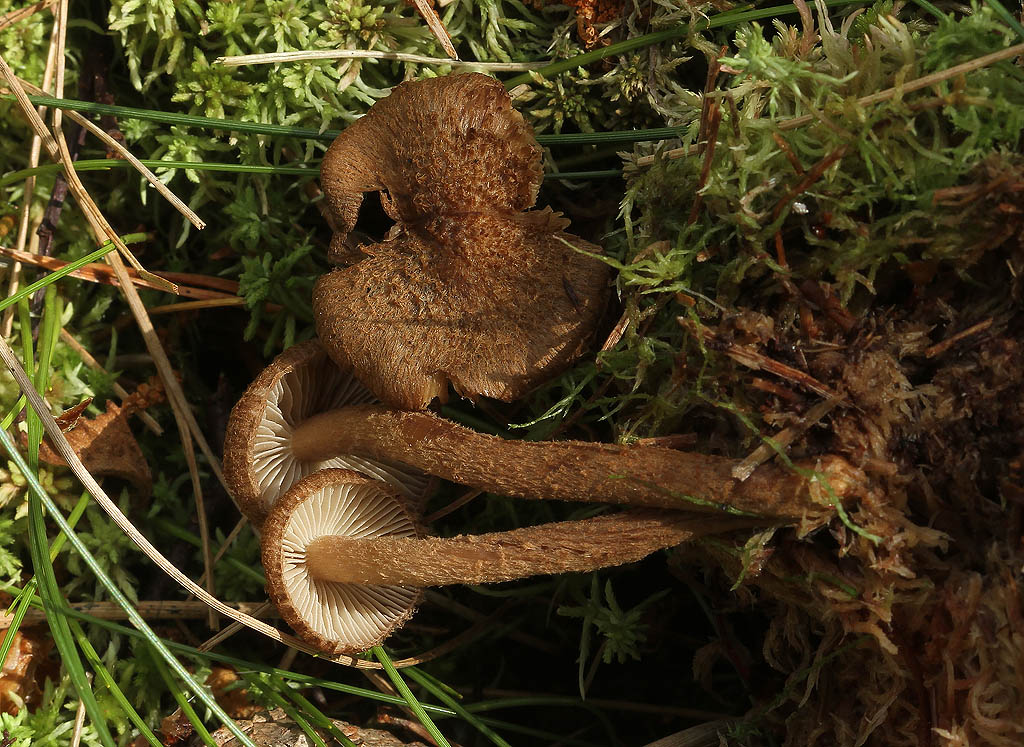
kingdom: Fungi
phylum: Basidiomycota
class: Agaricomycetes
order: Agaricales
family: Inocybaceae
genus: Inocybe
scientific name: Inocybe stellatospora
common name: spidsskællet trævlhat
